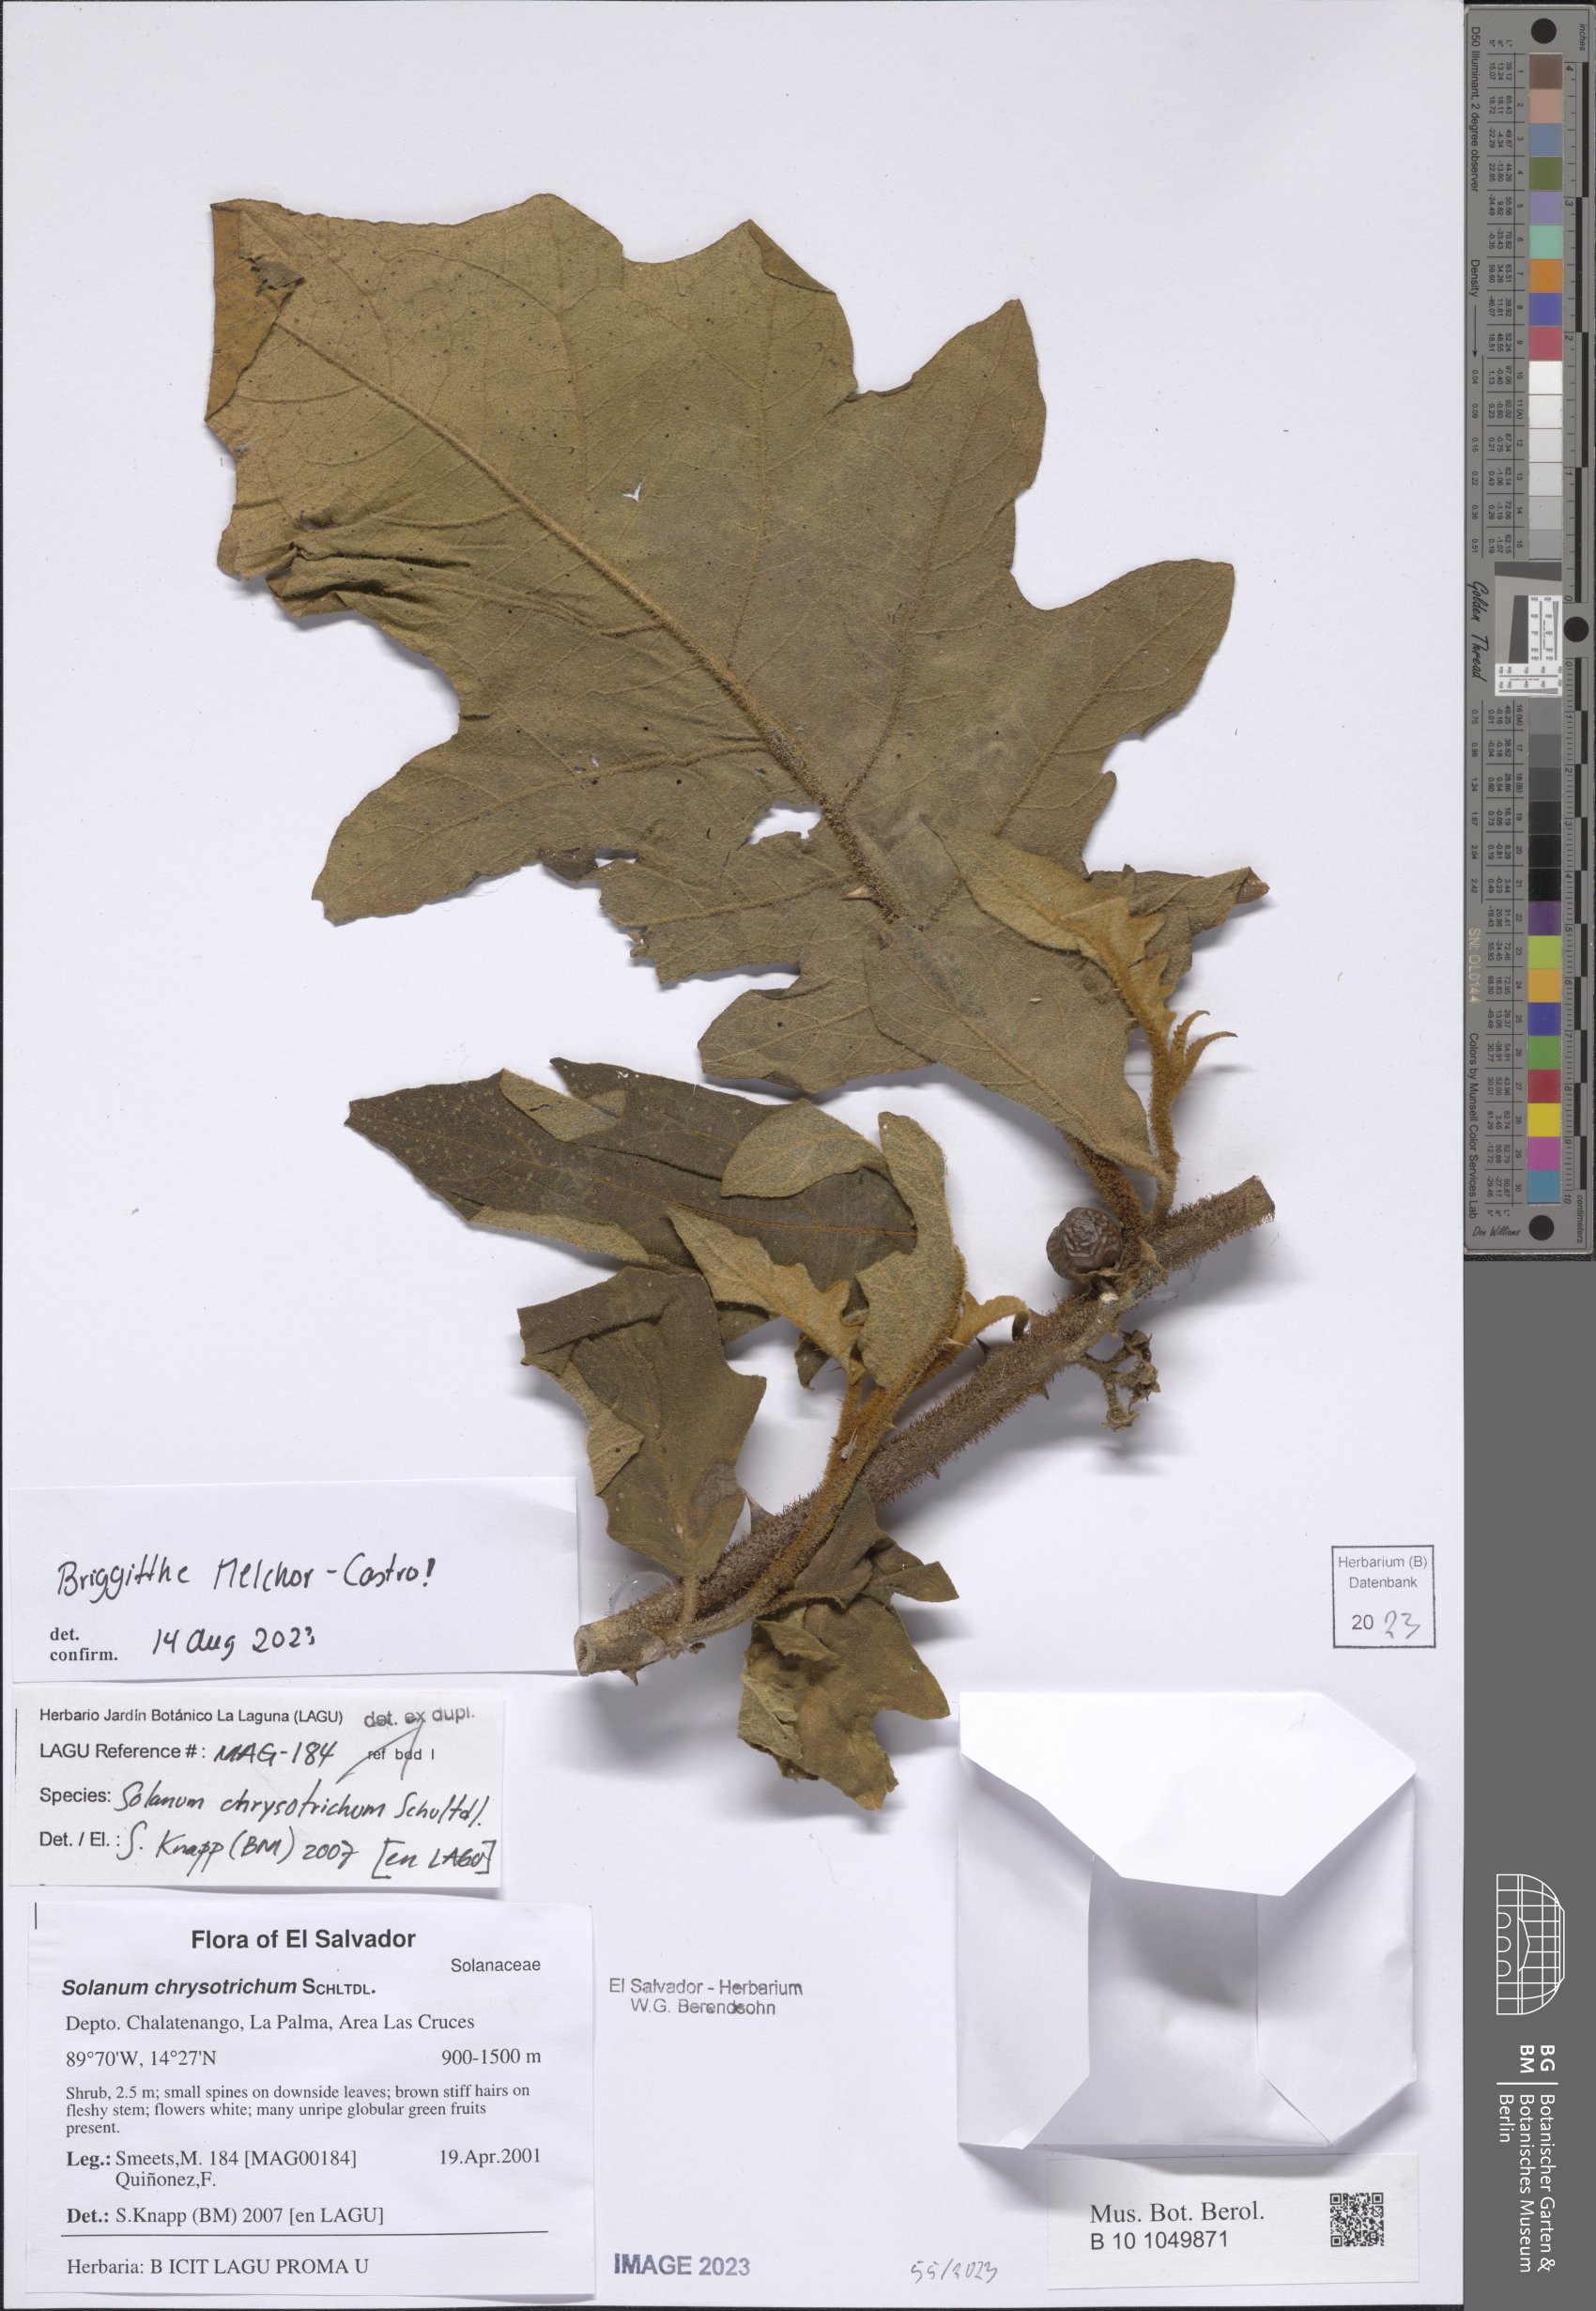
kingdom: Plantae
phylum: Tracheophyta
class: Magnoliopsida
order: Solanales
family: Solanaceae
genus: Solanum
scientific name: Solanum chrysotrichum
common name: Nightshade
